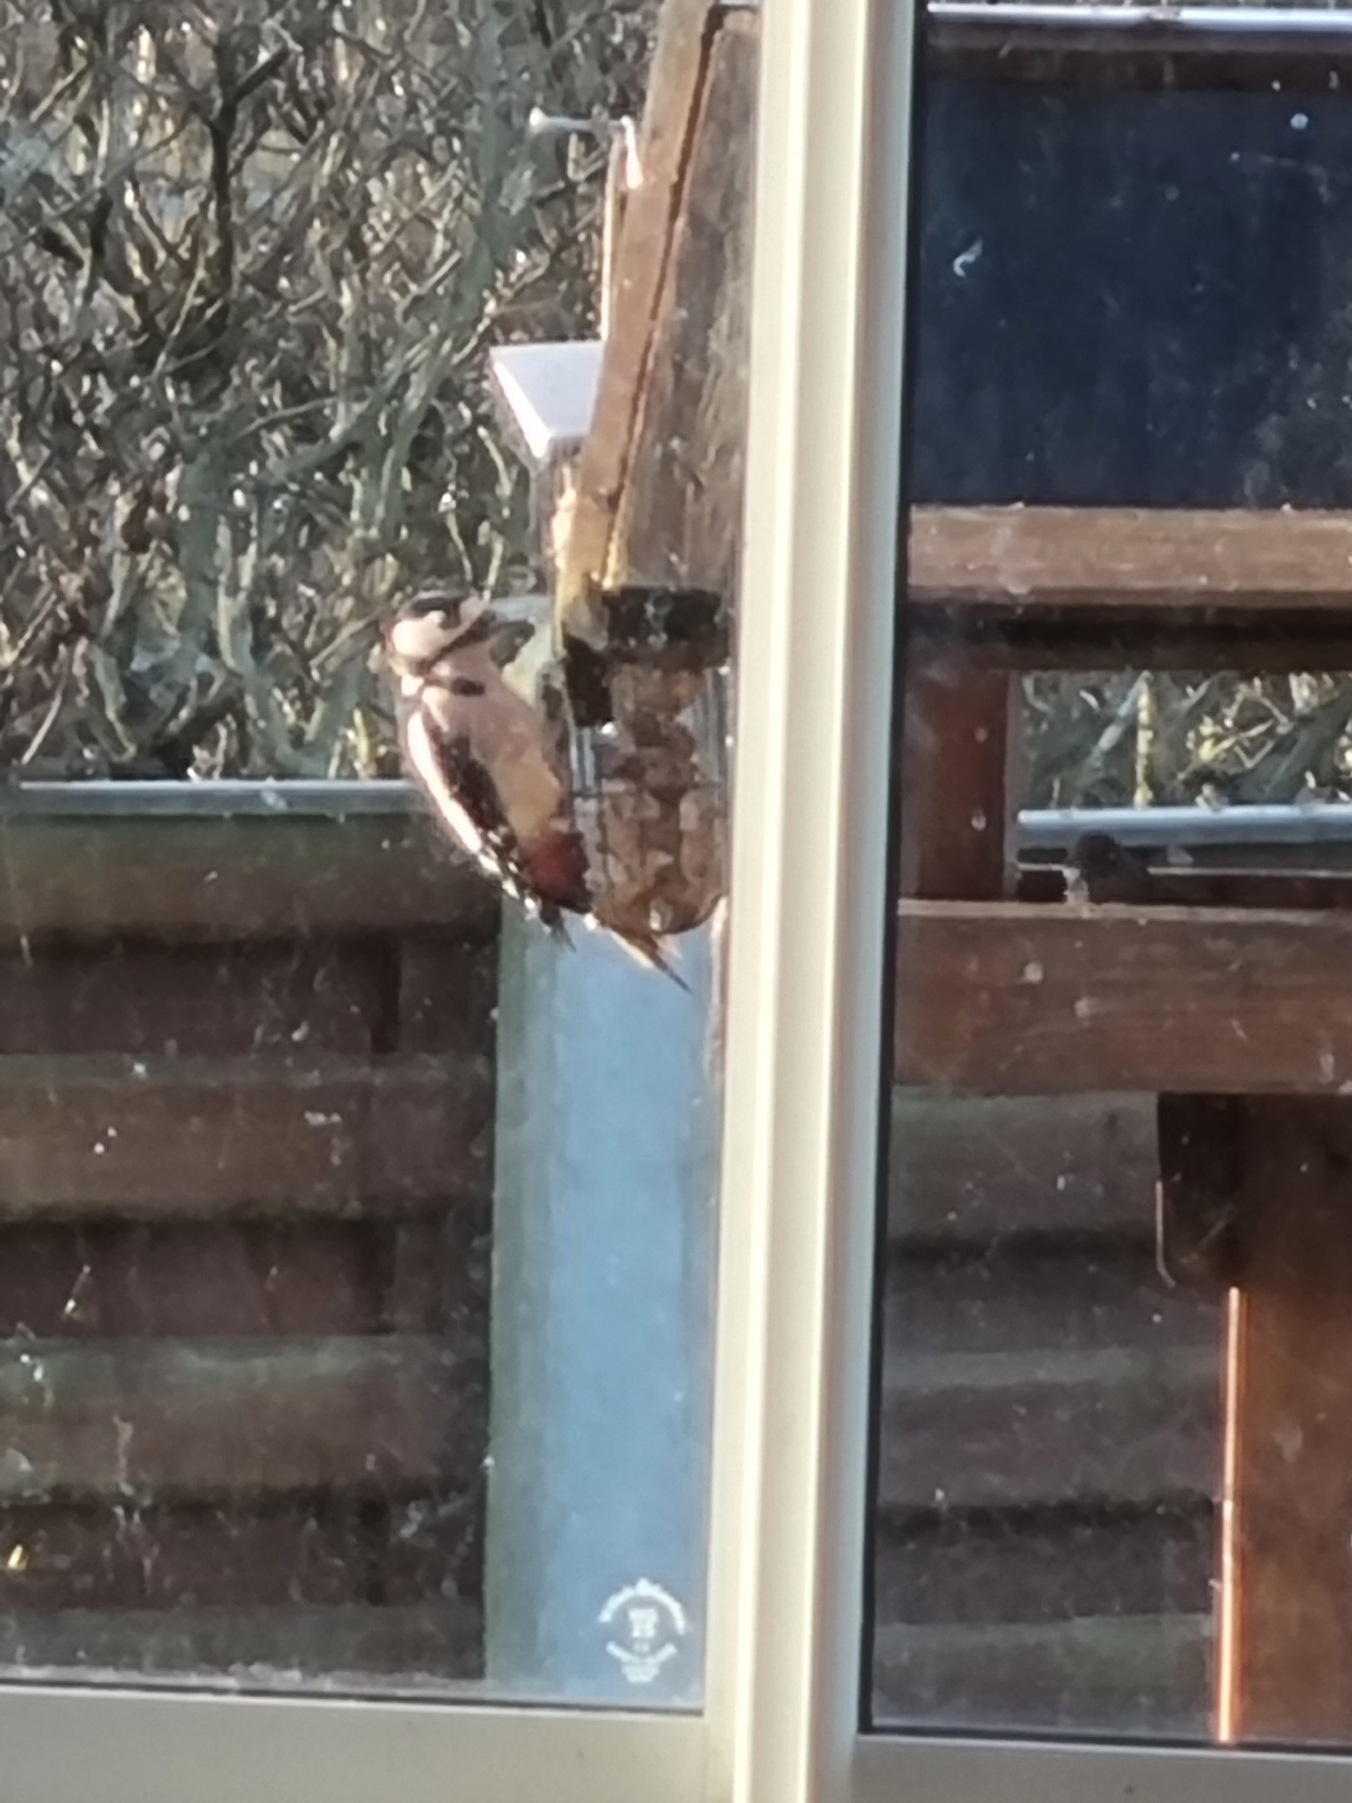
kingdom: Animalia
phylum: Chordata
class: Aves
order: Piciformes
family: Picidae
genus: Dendrocopos
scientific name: Dendrocopos major
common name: Stor flagspætte
